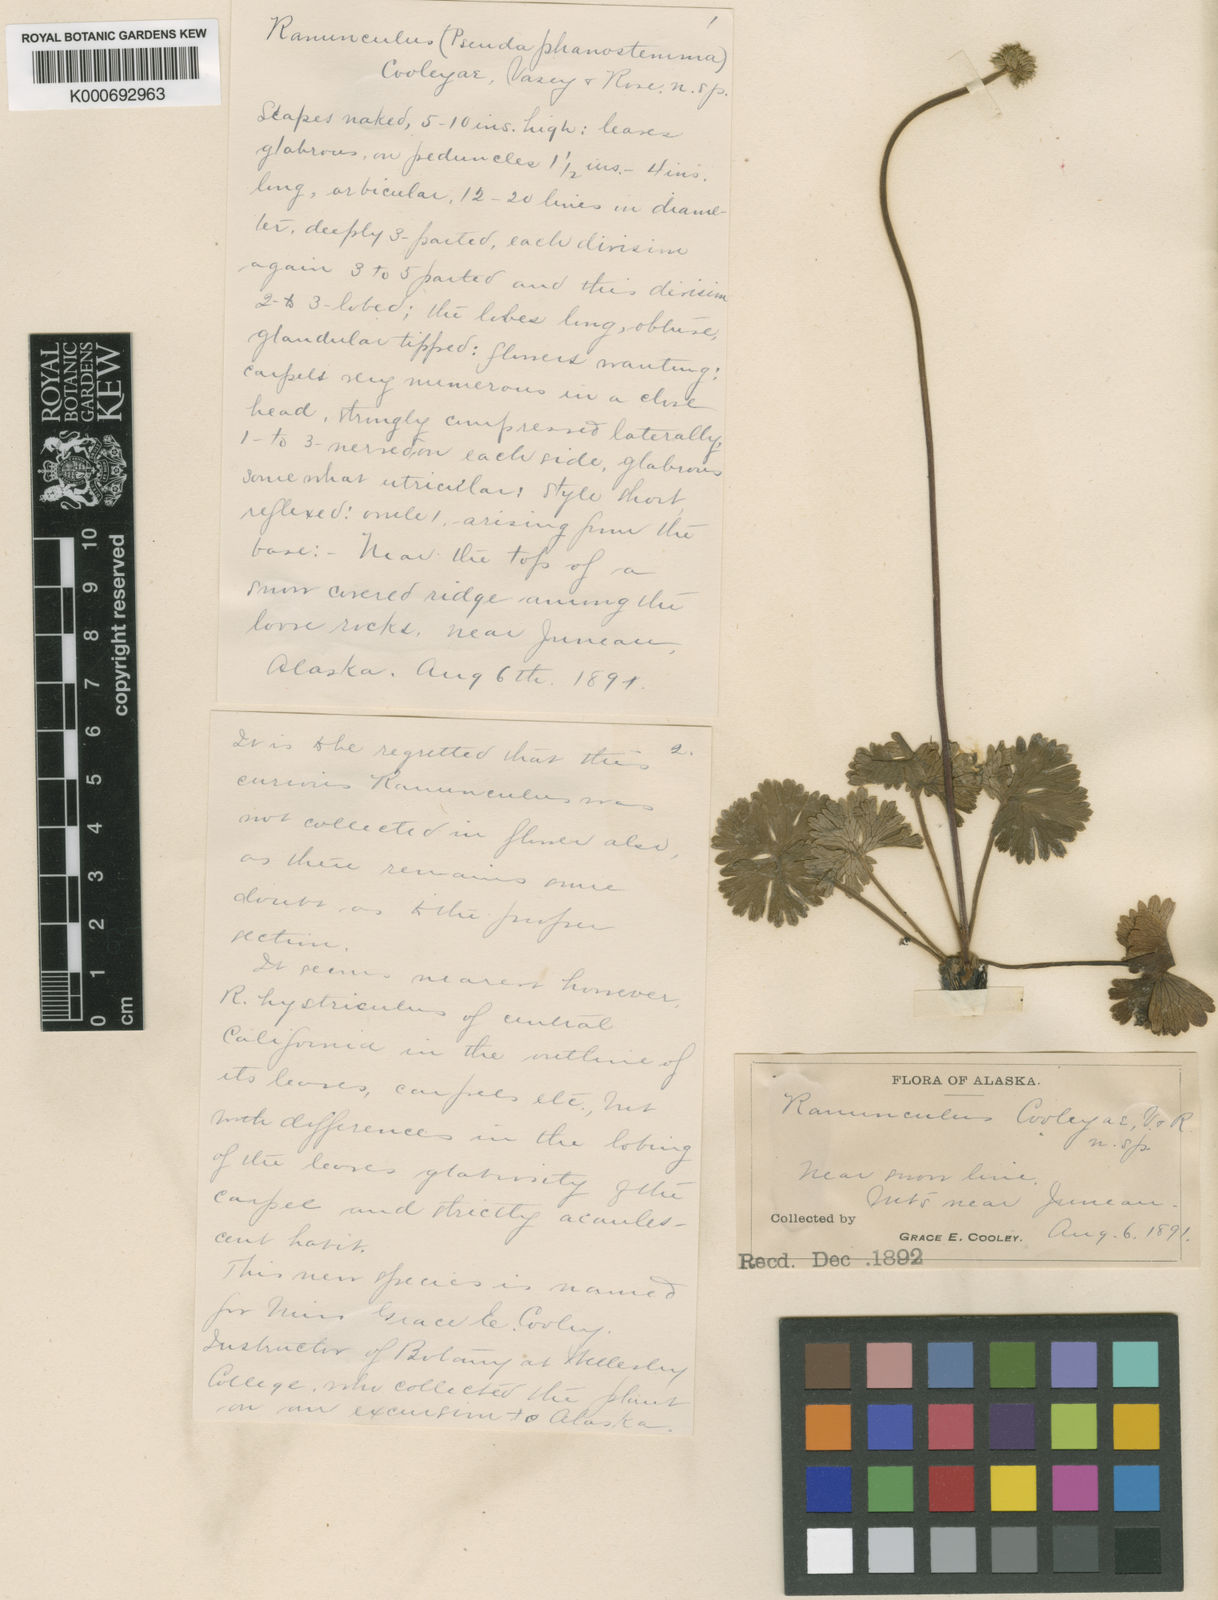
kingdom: Plantae
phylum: Tracheophyta
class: Magnoliopsida
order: Ranunculales
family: Ranunculaceae
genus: Arcteranthis
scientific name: Arcteranthis cooleyae
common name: Cooley's buttercup
